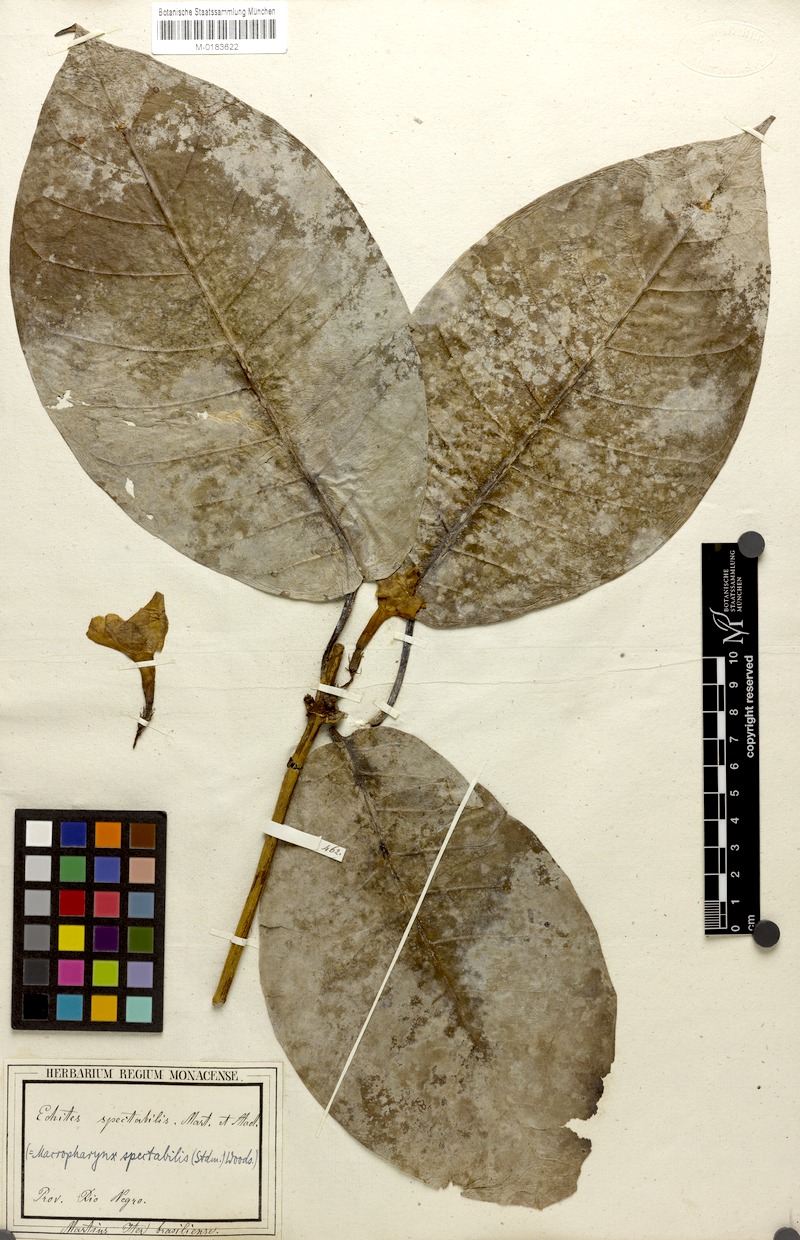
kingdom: Plantae
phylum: Tracheophyta
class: Magnoliopsida
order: Gentianales
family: Apocynaceae
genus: Macropharynx
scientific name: Macropharynx spectabilis
